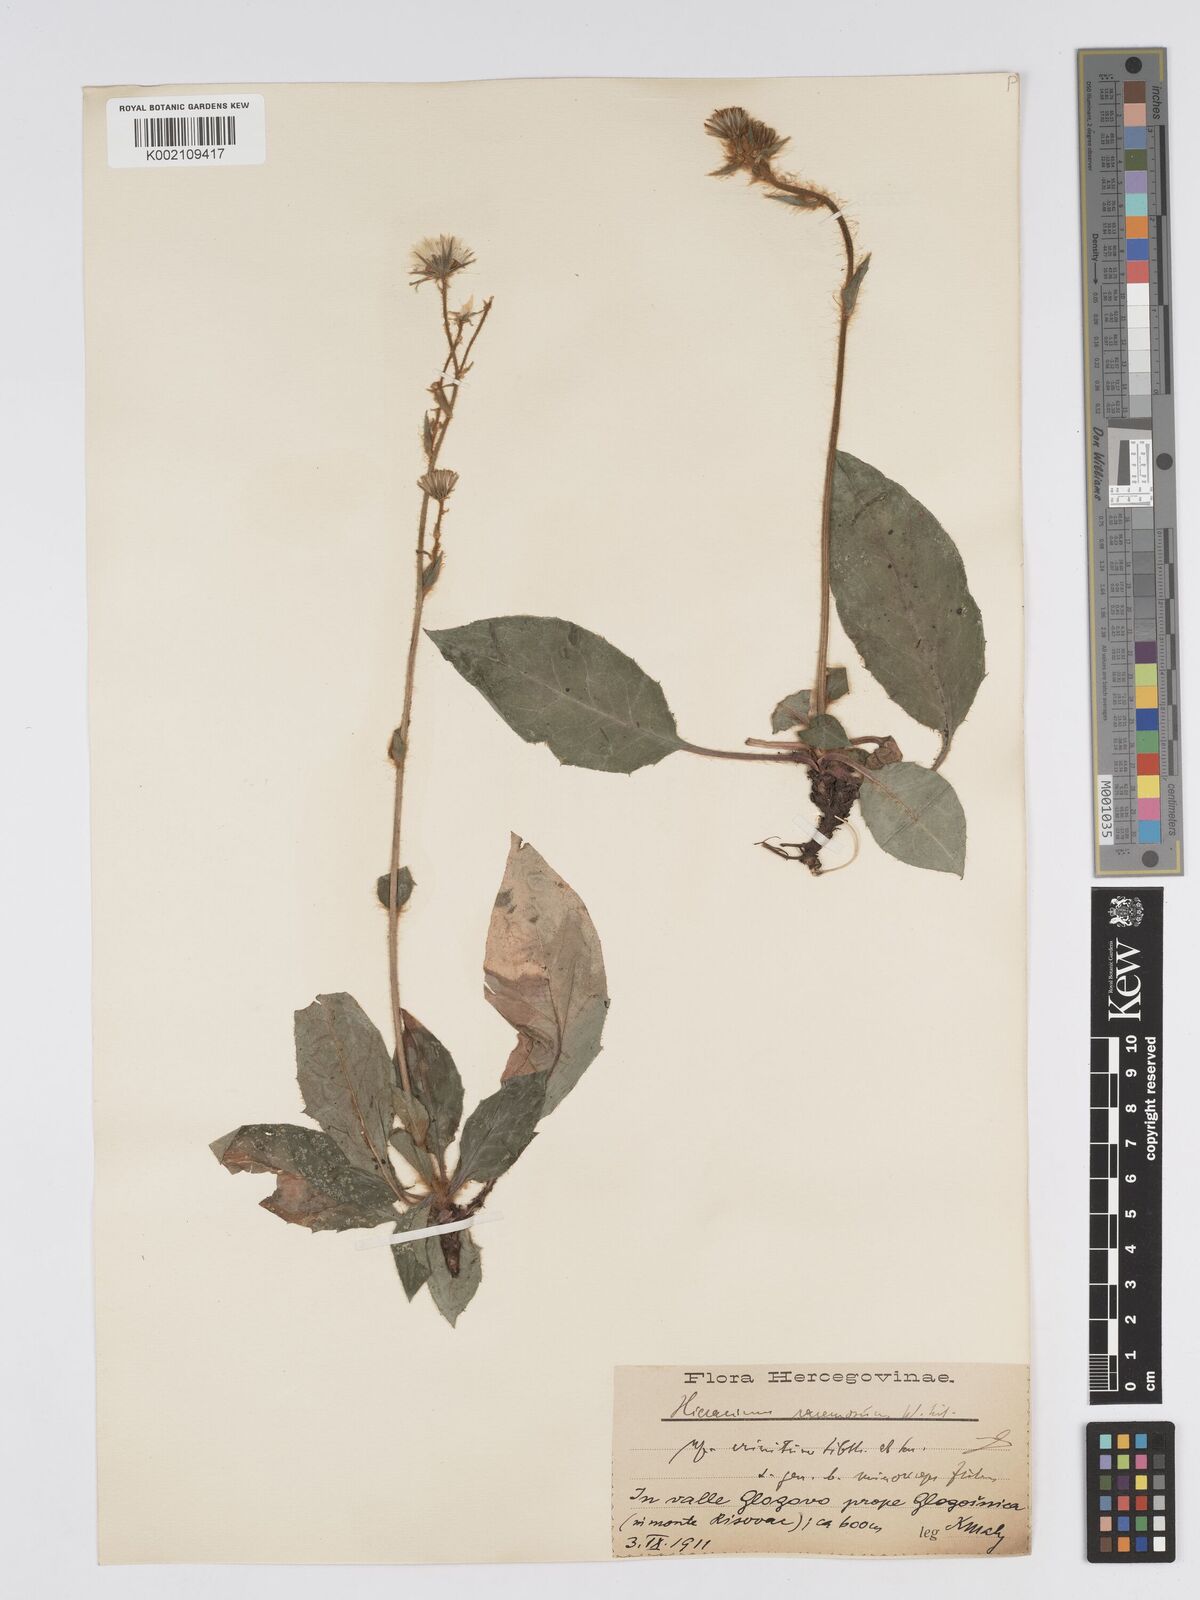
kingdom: Plantae
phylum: Tracheophyta
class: Magnoliopsida
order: Asterales
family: Asteraceae
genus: Hieracium
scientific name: Hieracium racemosum
